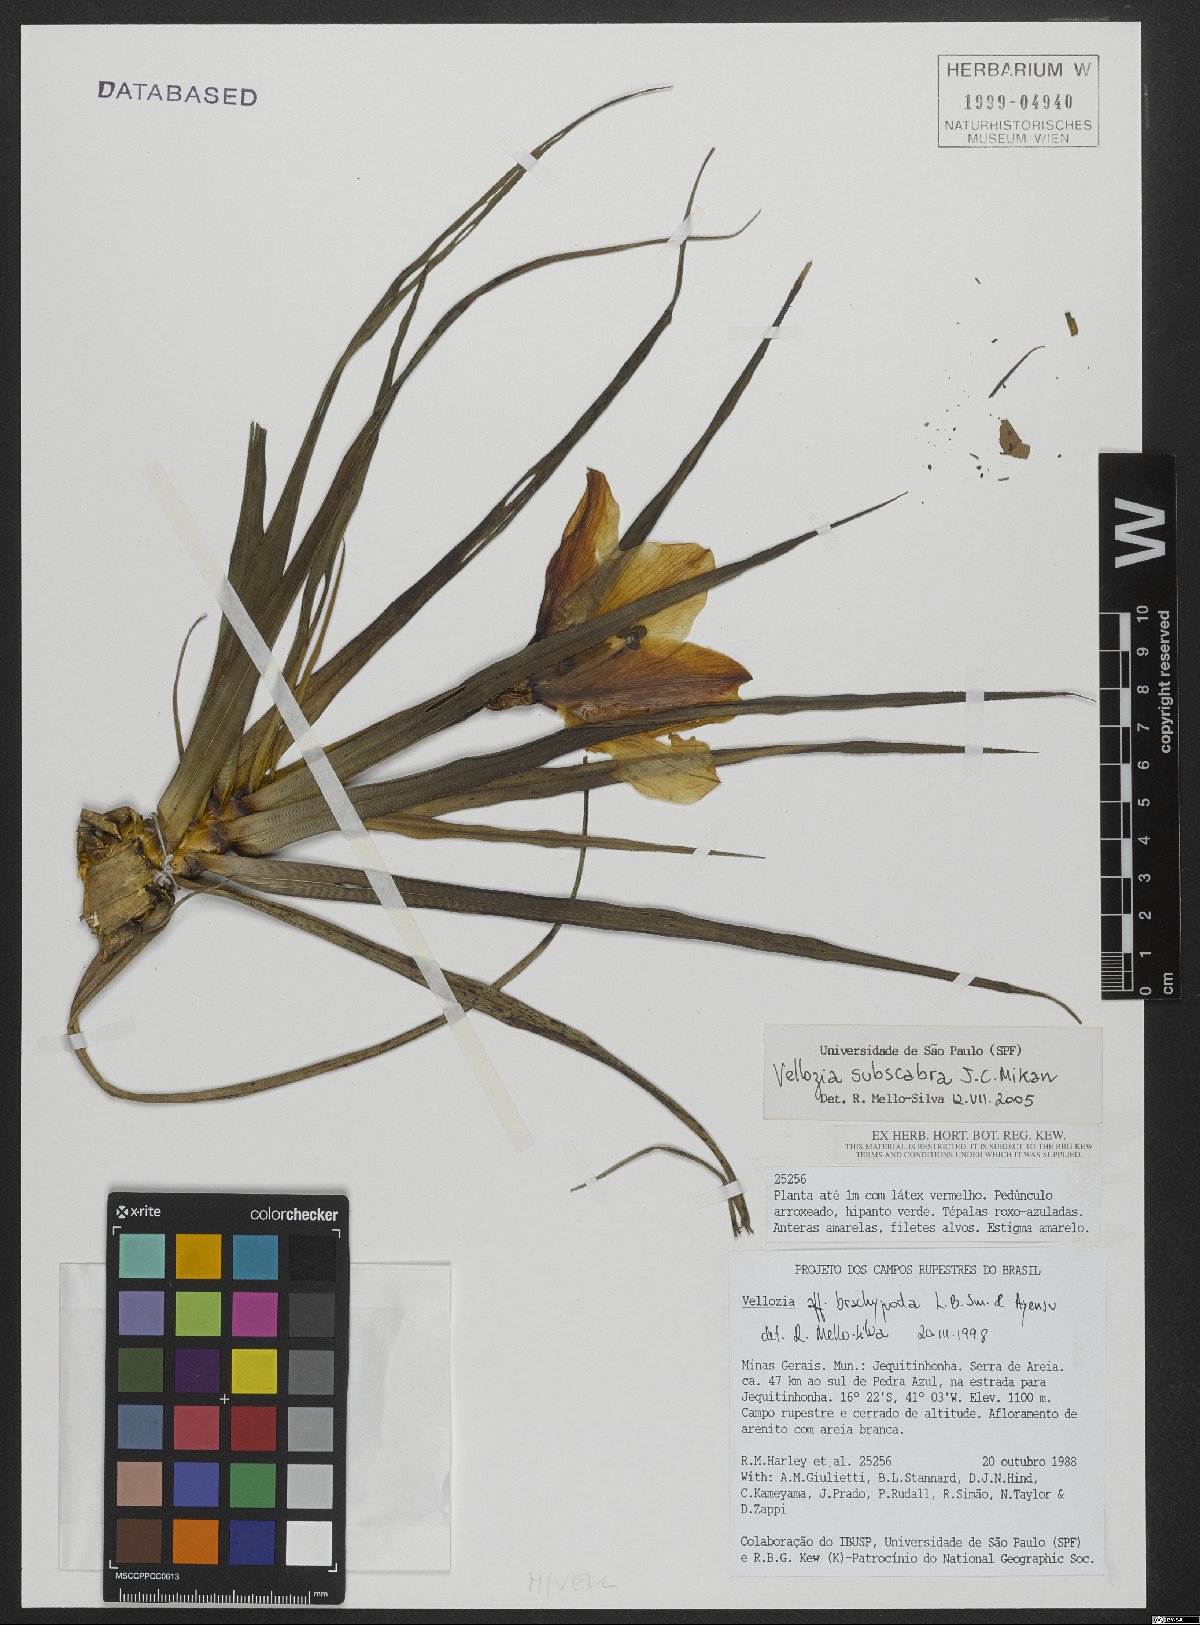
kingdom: Plantae
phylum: Tracheophyta
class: Liliopsida
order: Pandanales
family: Velloziaceae
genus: Vellozia
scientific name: Vellozia subscabra
